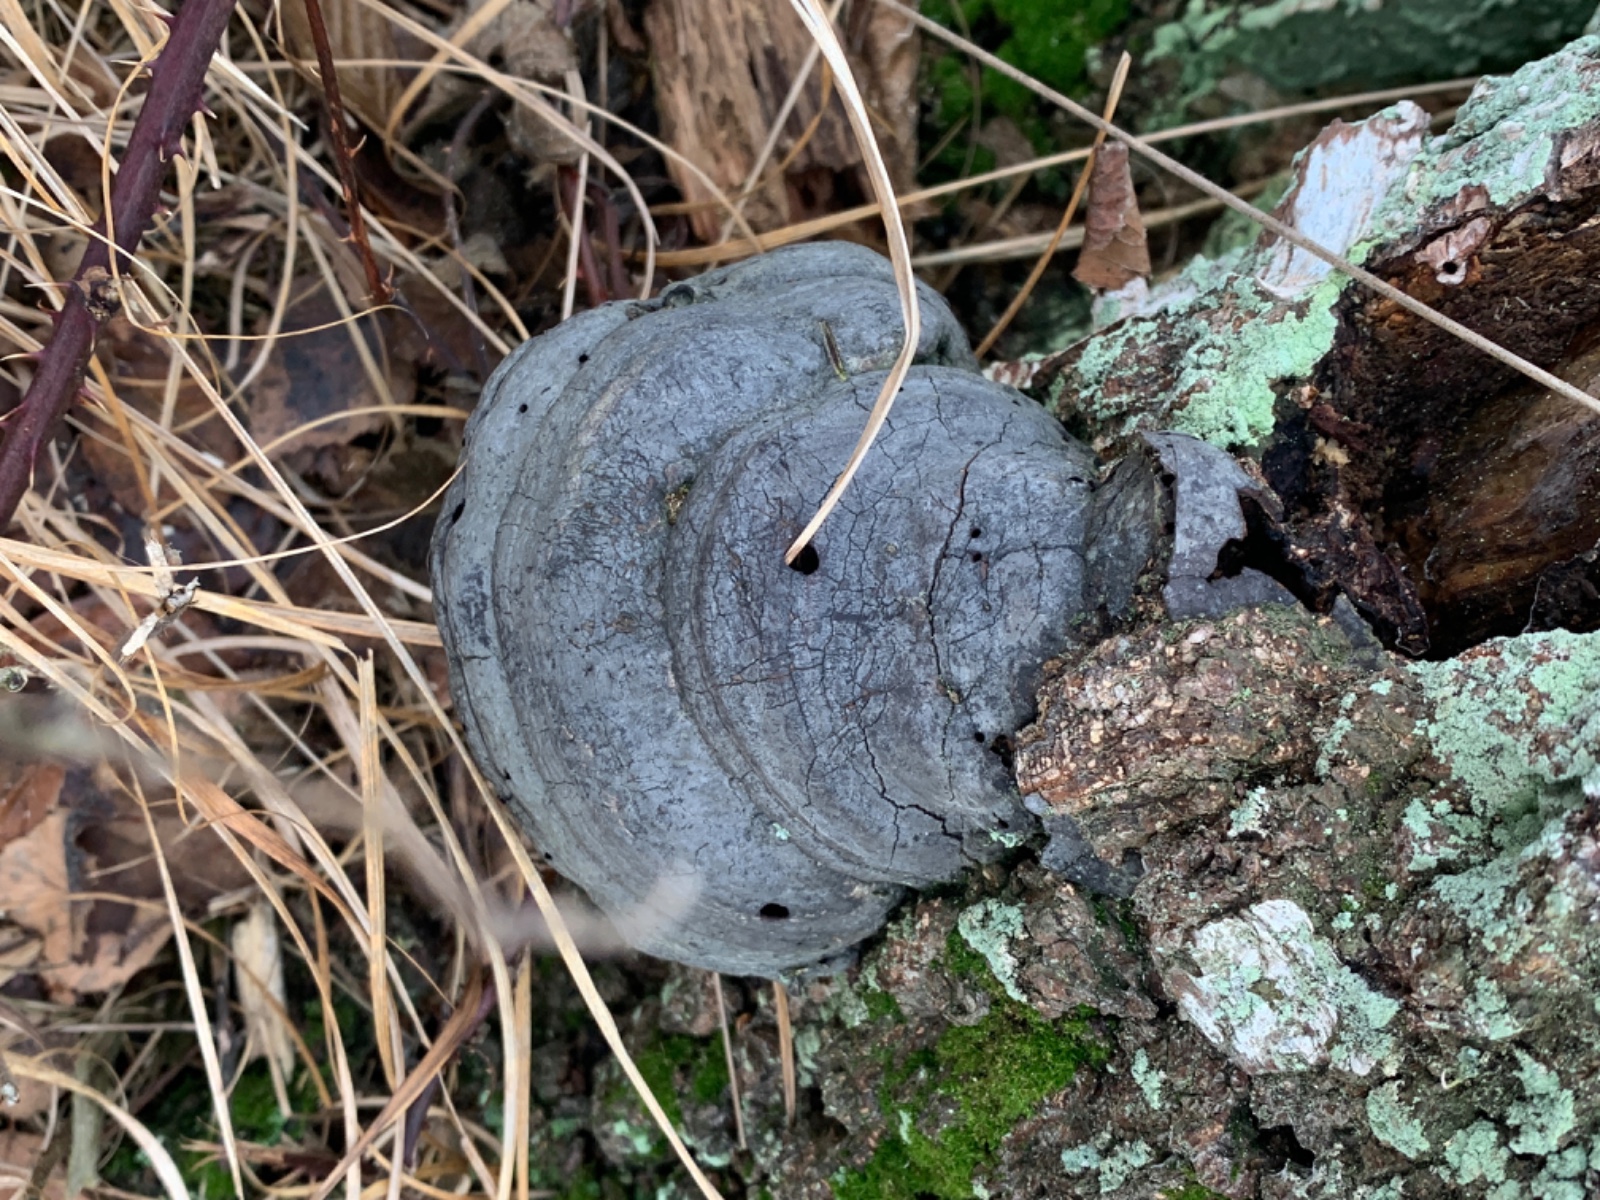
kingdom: Fungi
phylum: Basidiomycota
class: Agaricomycetes
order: Polyporales
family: Polyporaceae
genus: Fomes
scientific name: Fomes fomentarius
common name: tøndersvamp
